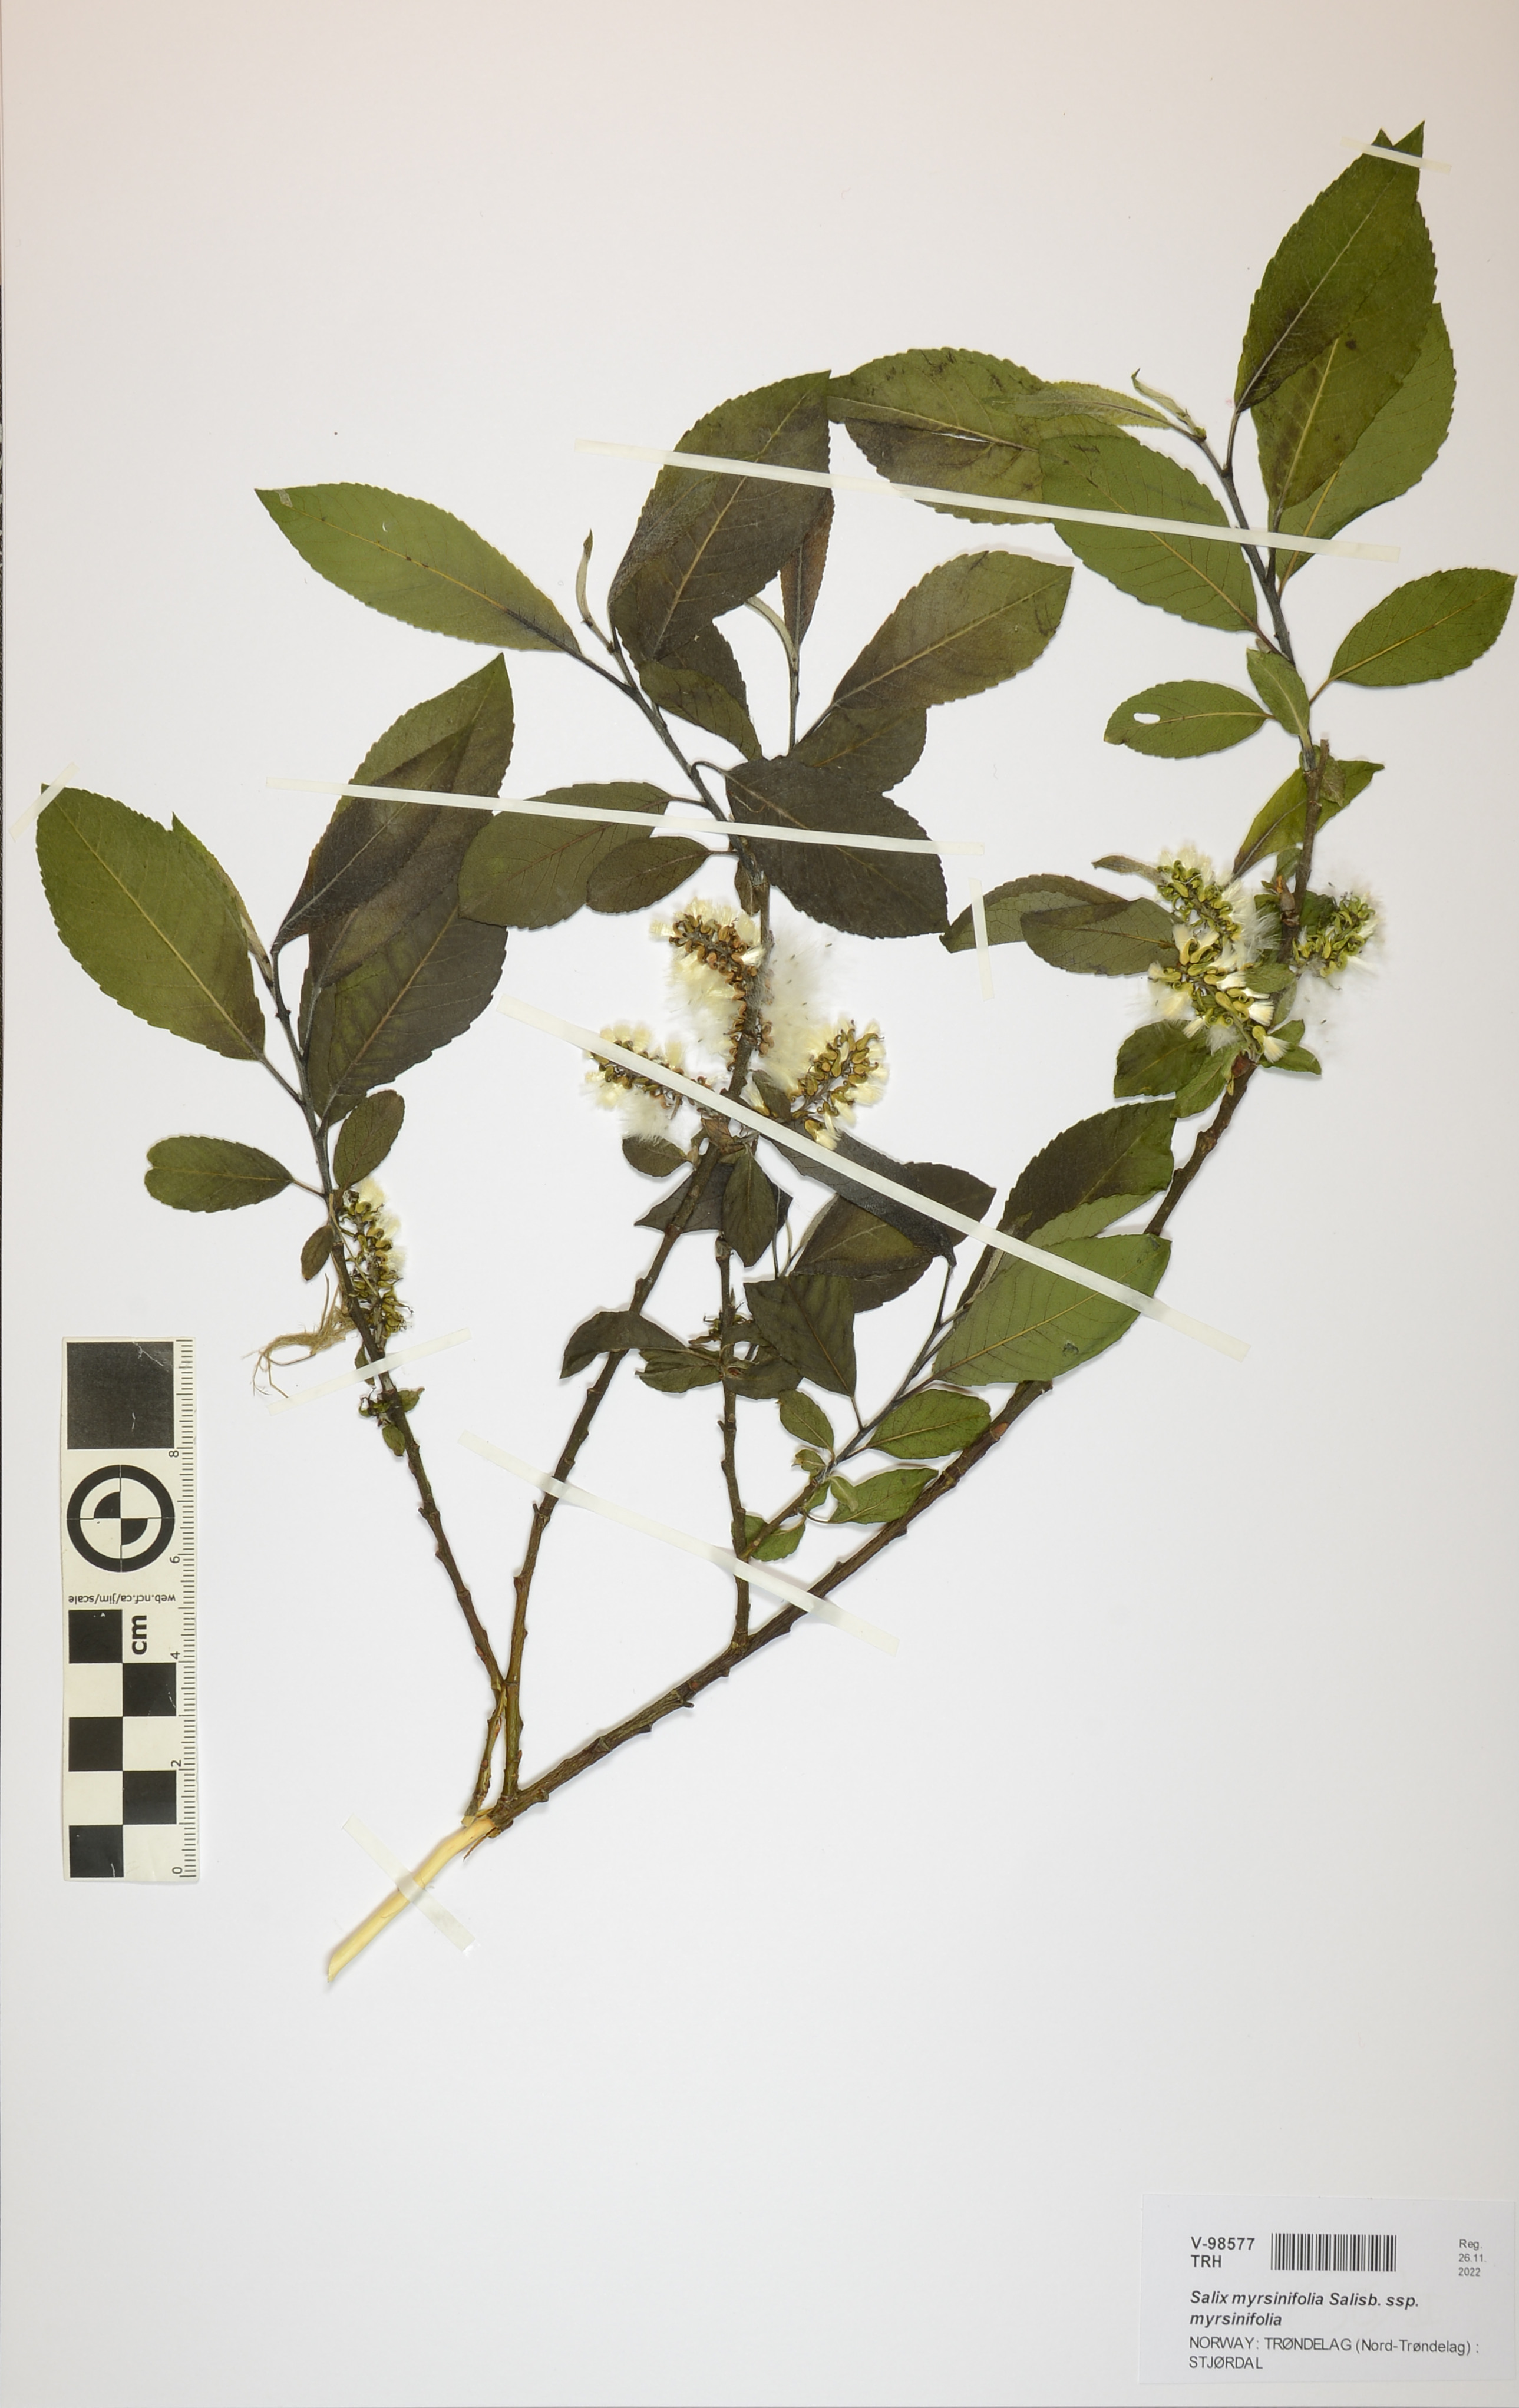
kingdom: Plantae
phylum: Tracheophyta
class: Magnoliopsida
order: Malpighiales
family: Salicaceae
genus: Salix
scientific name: Salix myrsinifolia
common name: Dark-leaved willow
